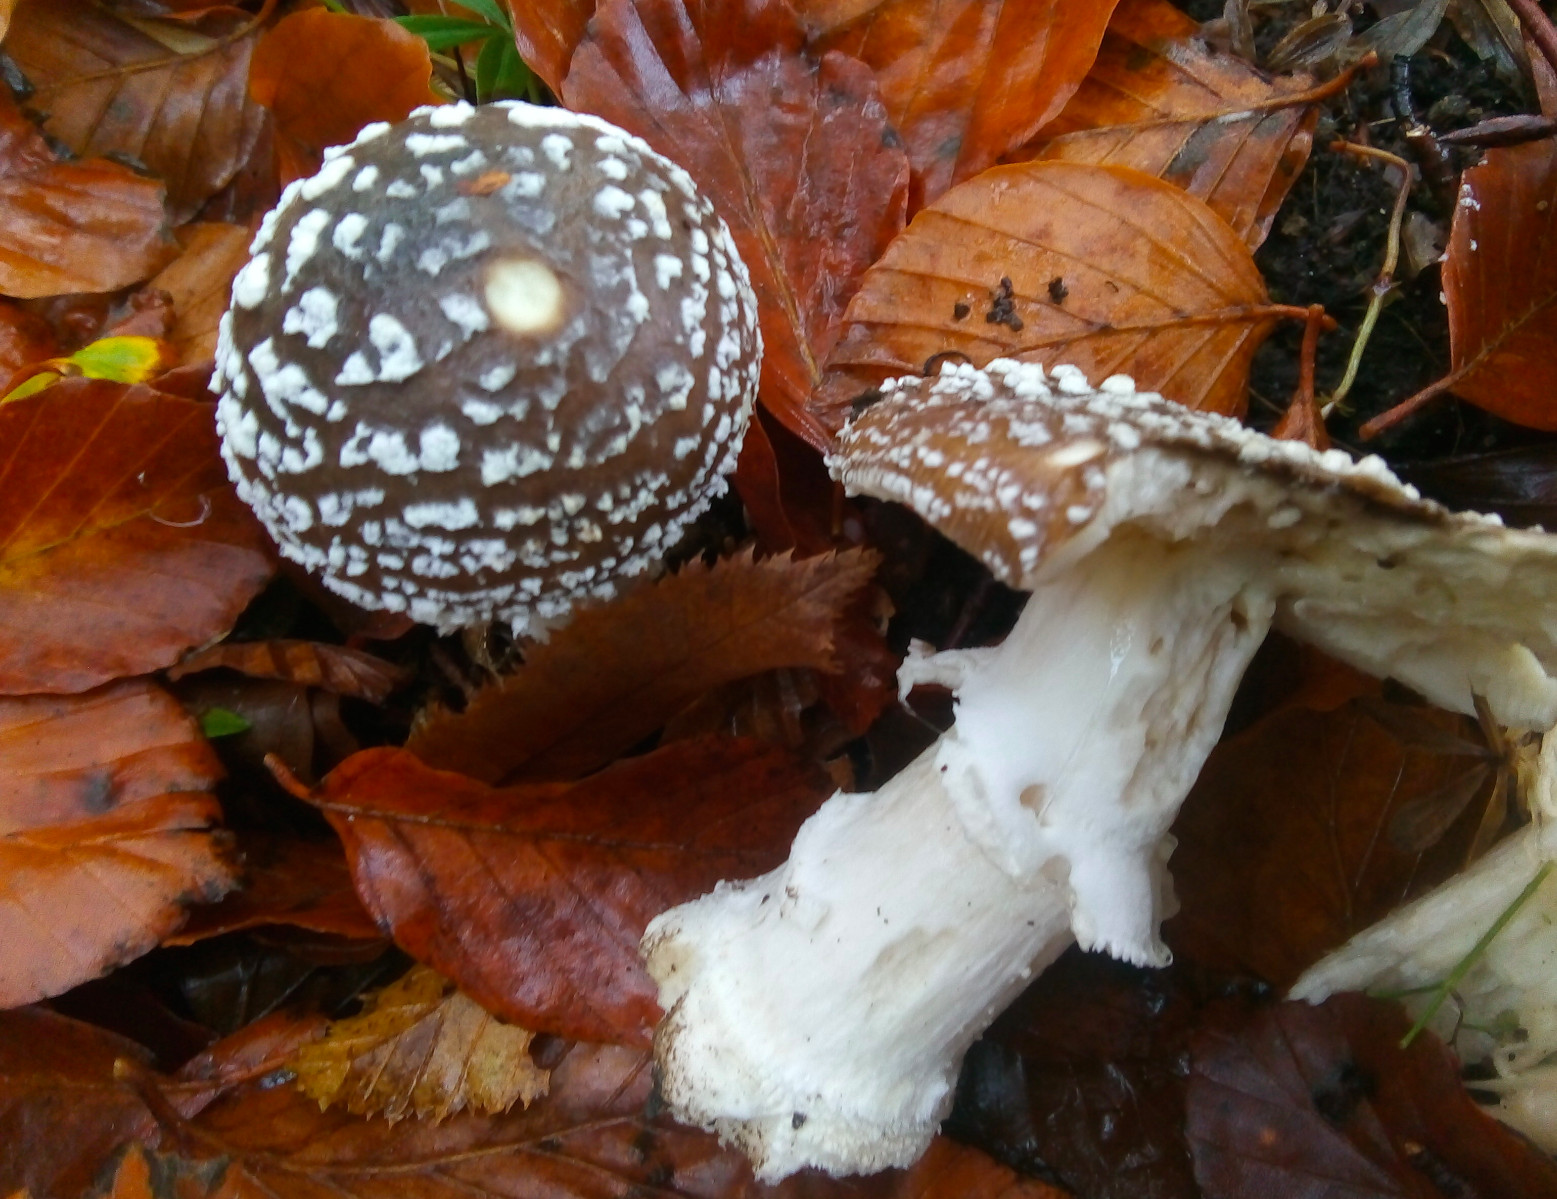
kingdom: Fungi
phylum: Basidiomycota
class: Agaricomycetes
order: Agaricales
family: Amanitaceae
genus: Amanita
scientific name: Amanita pantherina
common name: panter-fluesvamp
